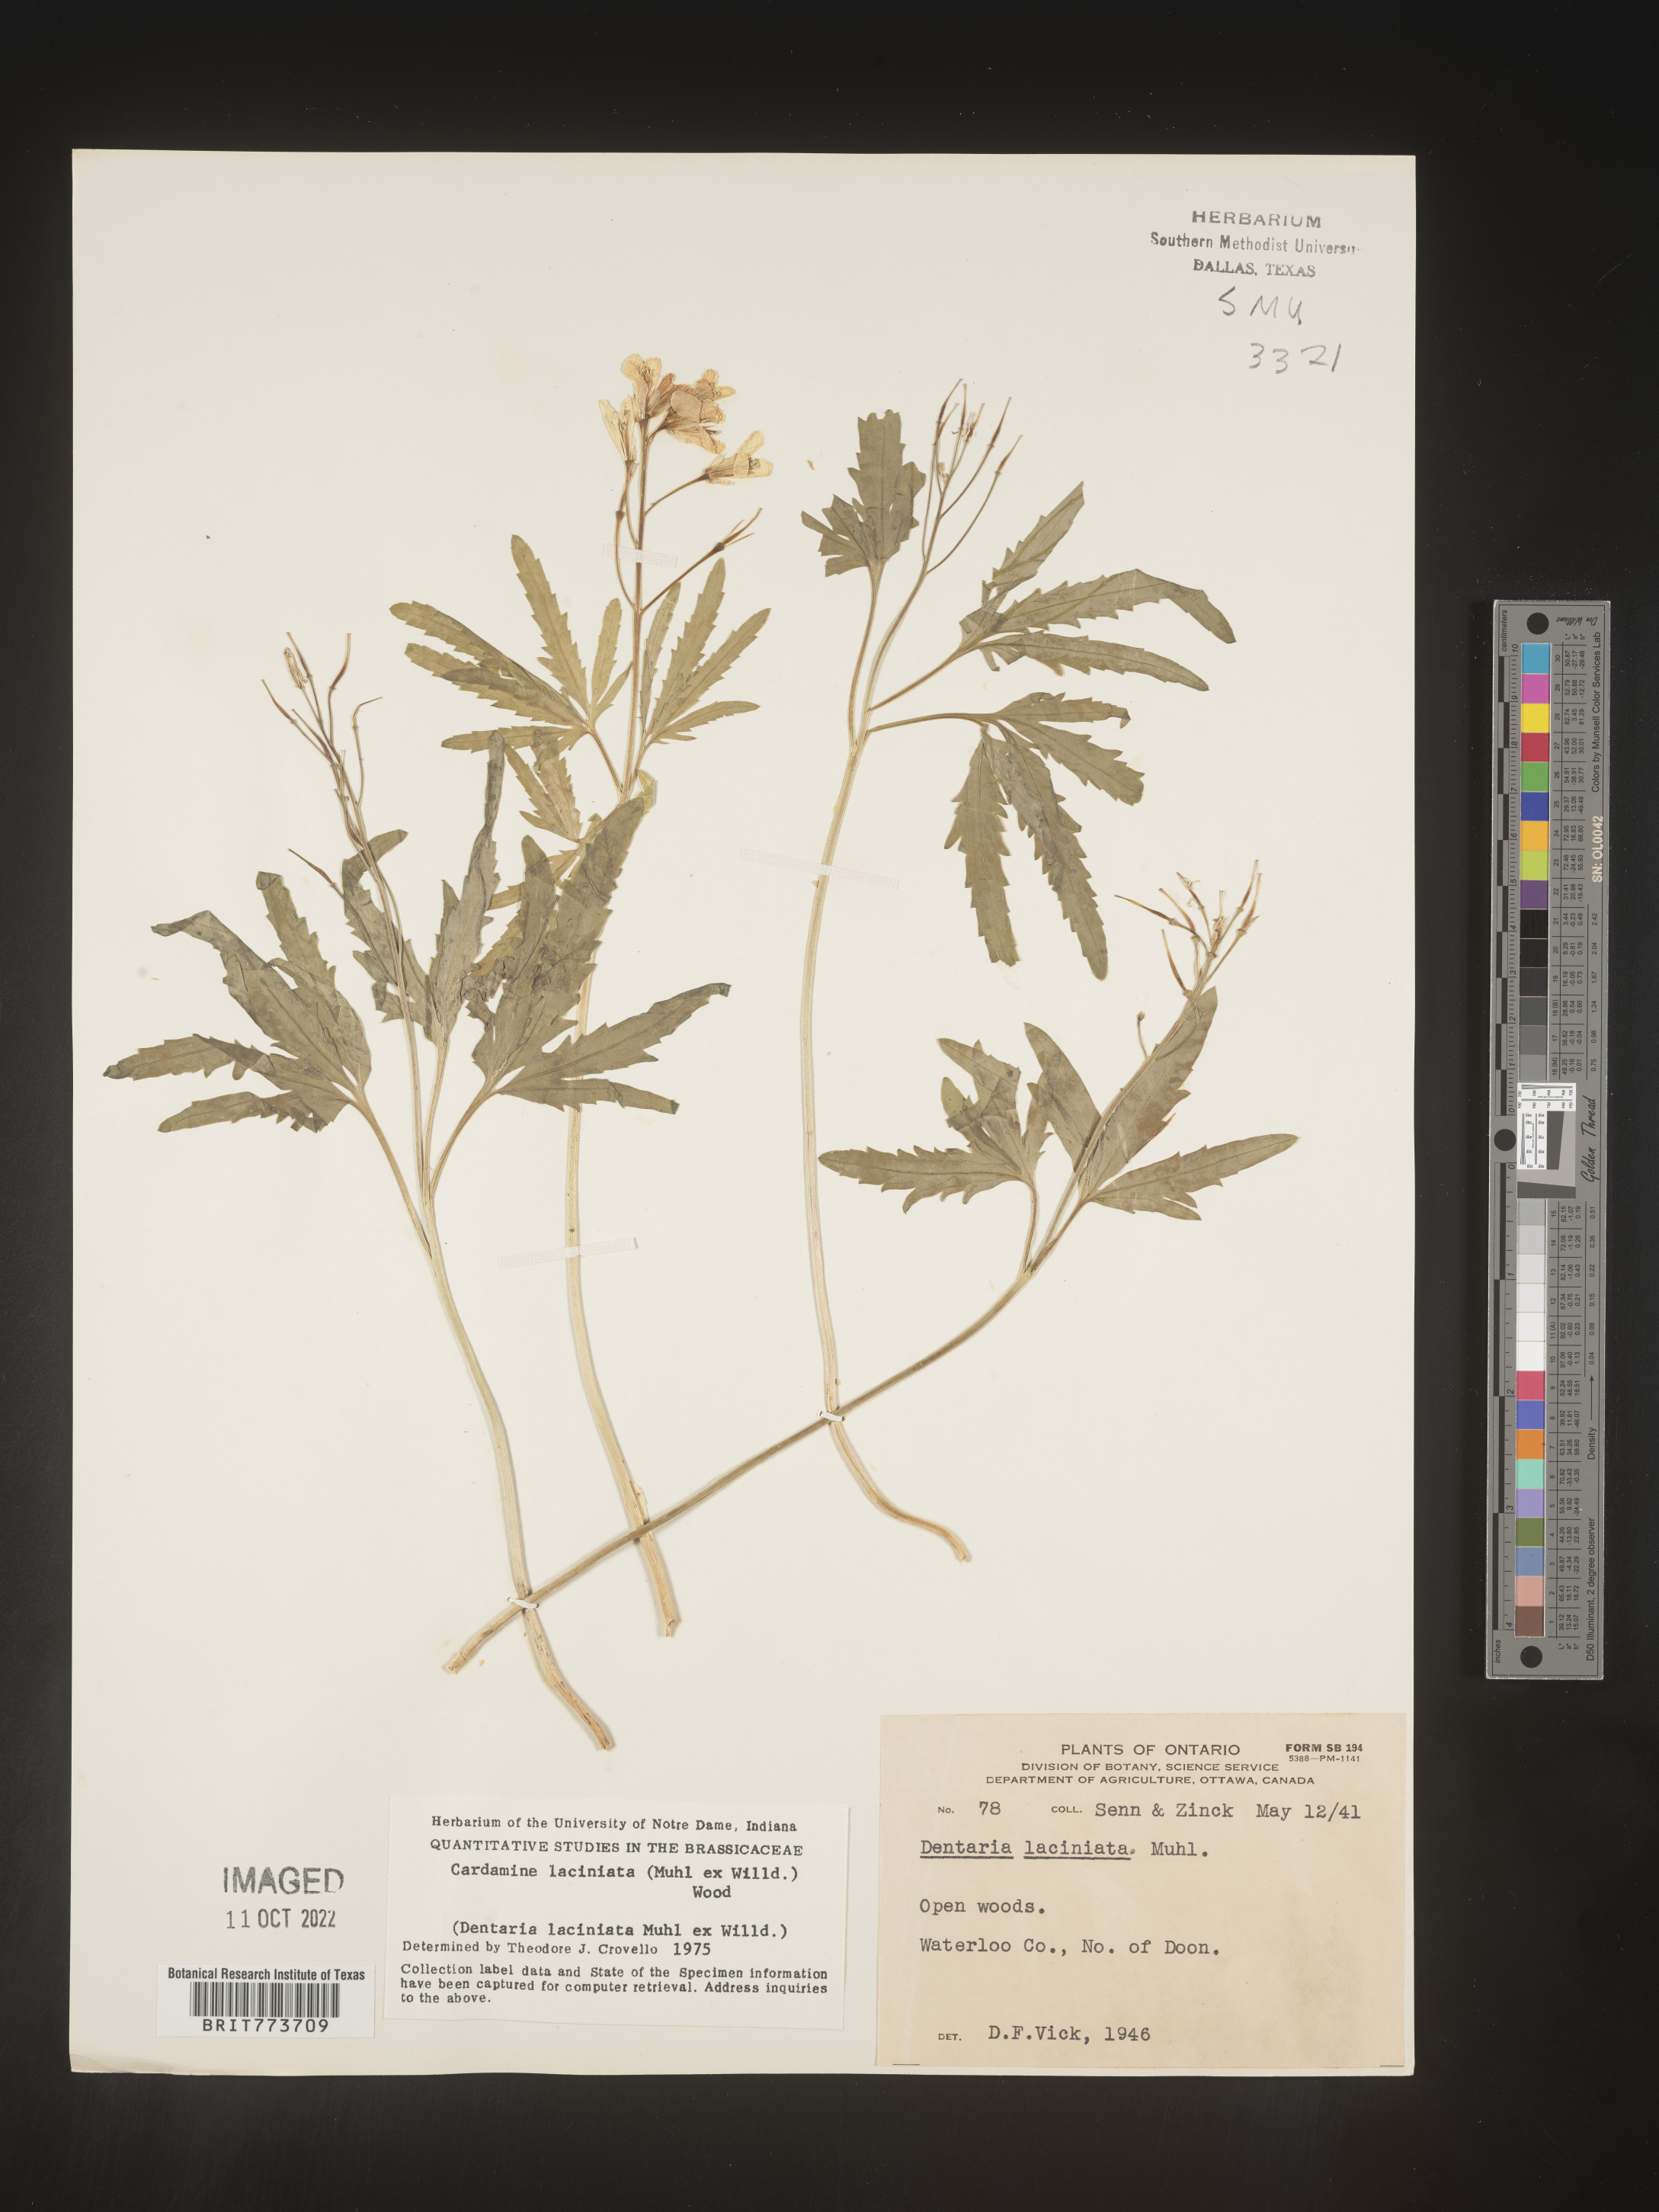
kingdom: Plantae
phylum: Tracheophyta
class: Magnoliopsida
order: Brassicales
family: Brassicaceae
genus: Rorippa
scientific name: Rorippa laciniata
